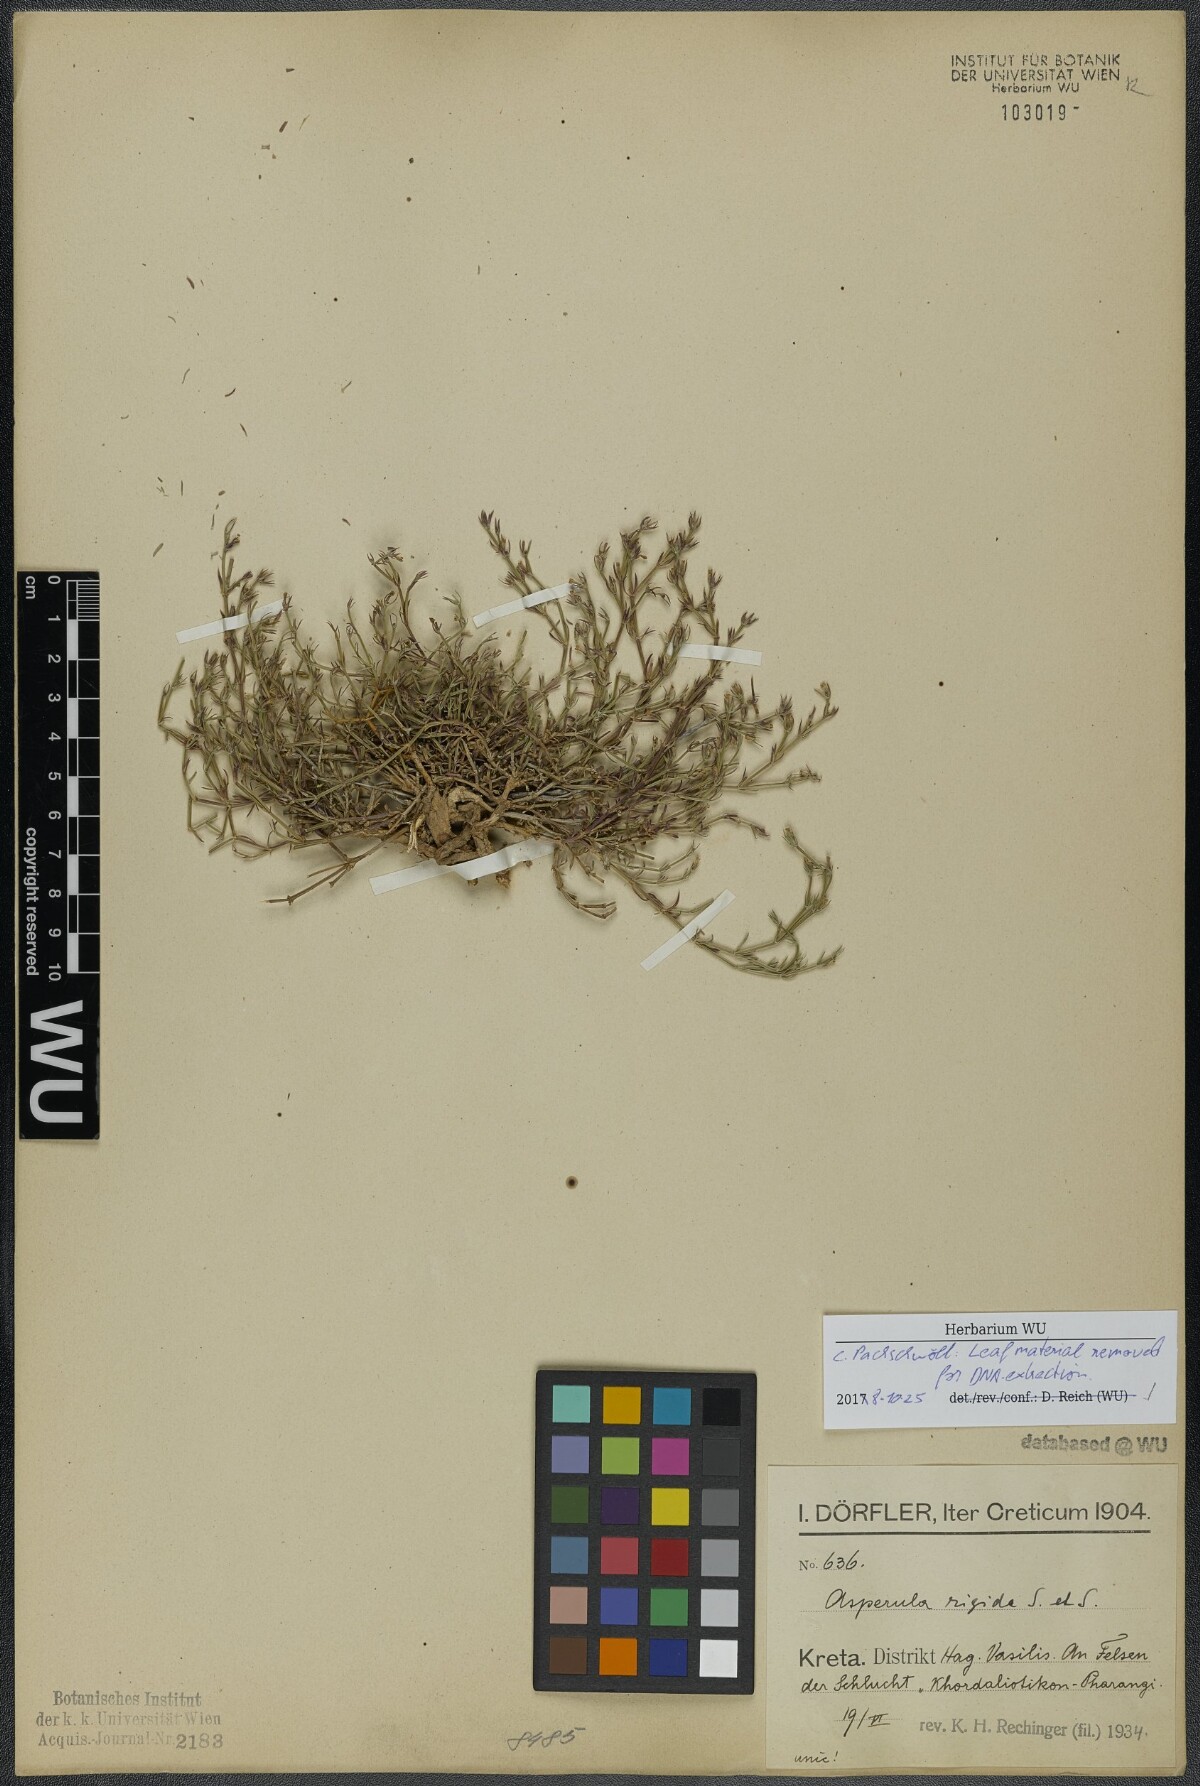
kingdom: Plantae
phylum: Tracheophyta
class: Magnoliopsida
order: Gentianales
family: Rubiaceae
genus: Thliphthisa
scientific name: Thliphthisa rigida
